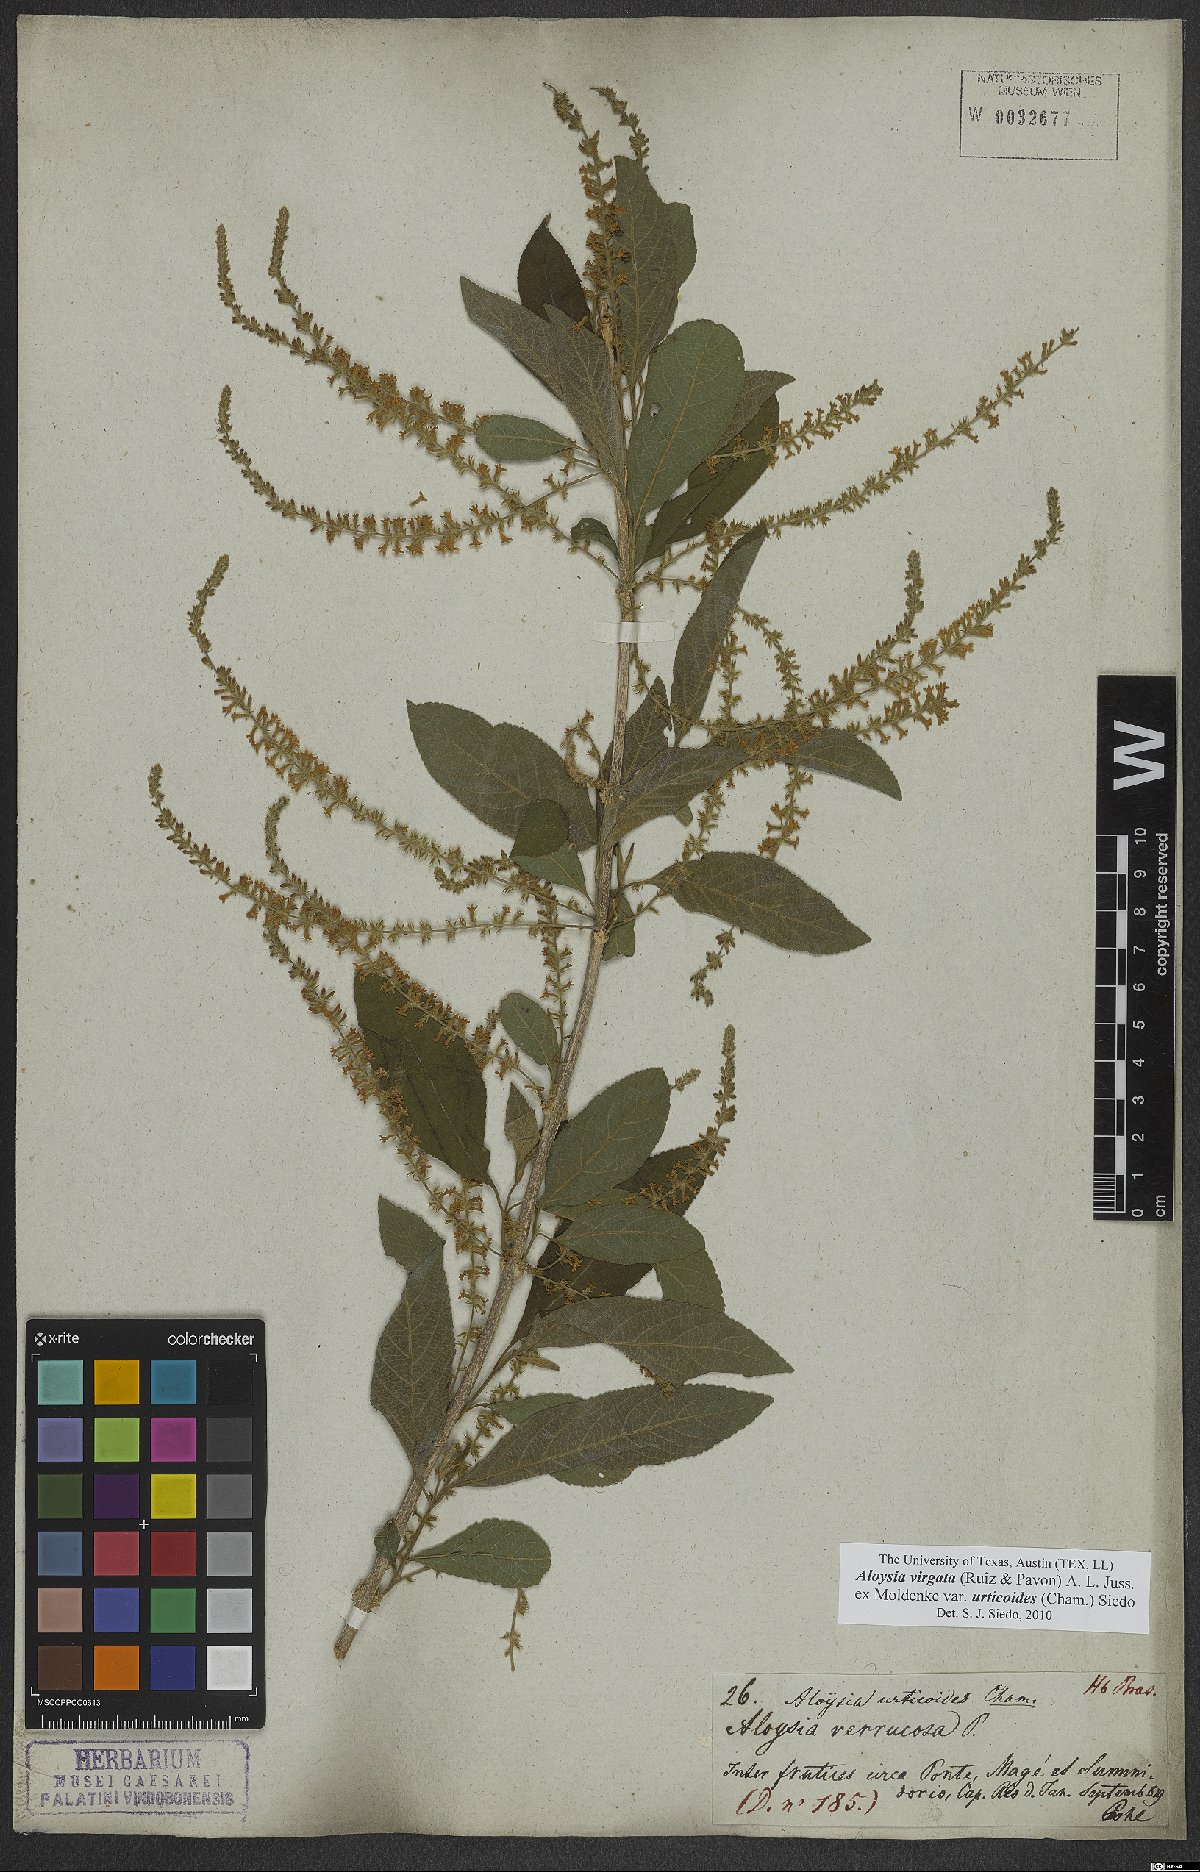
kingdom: Plantae
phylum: Tracheophyta
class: Magnoliopsida
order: Lamiales
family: Verbenaceae
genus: Aloysia
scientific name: Aloysia virgata
